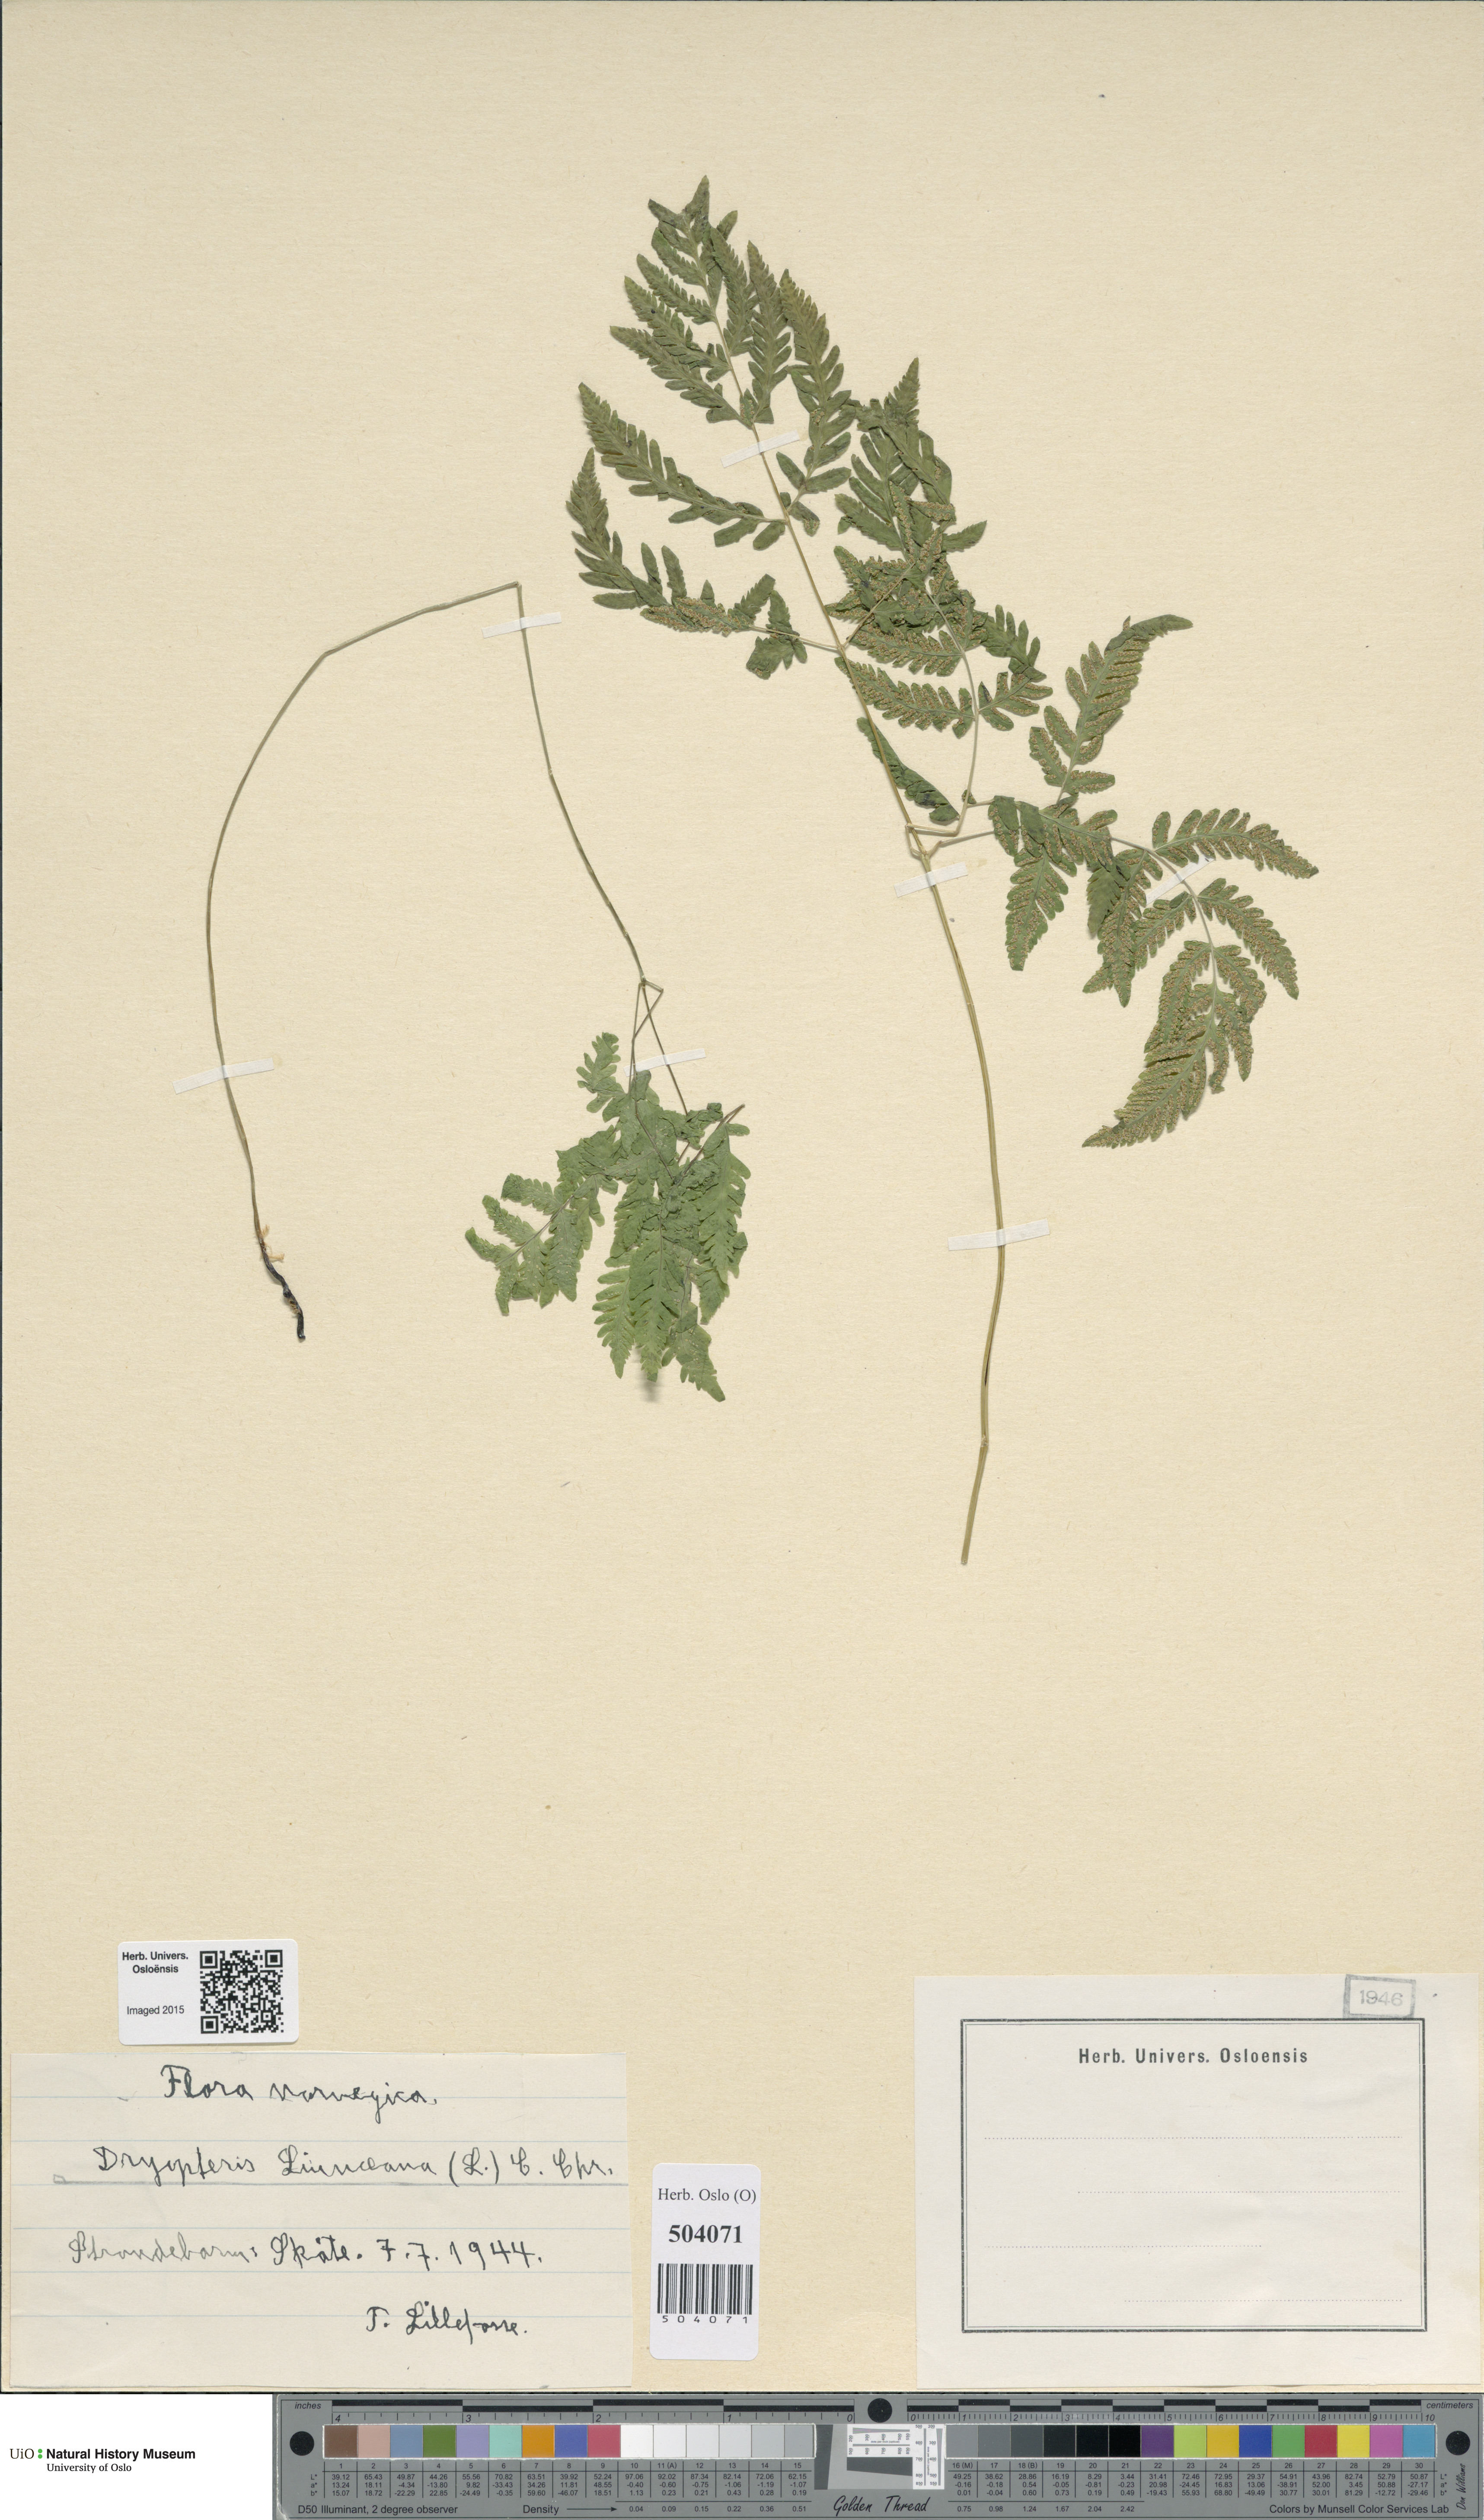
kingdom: Plantae
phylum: Tracheophyta
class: Polypodiopsida
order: Polypodiales
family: Cystopteridaceae
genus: Gymnocarpium
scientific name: Gymnocarpium dryopteris
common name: Oak fern
